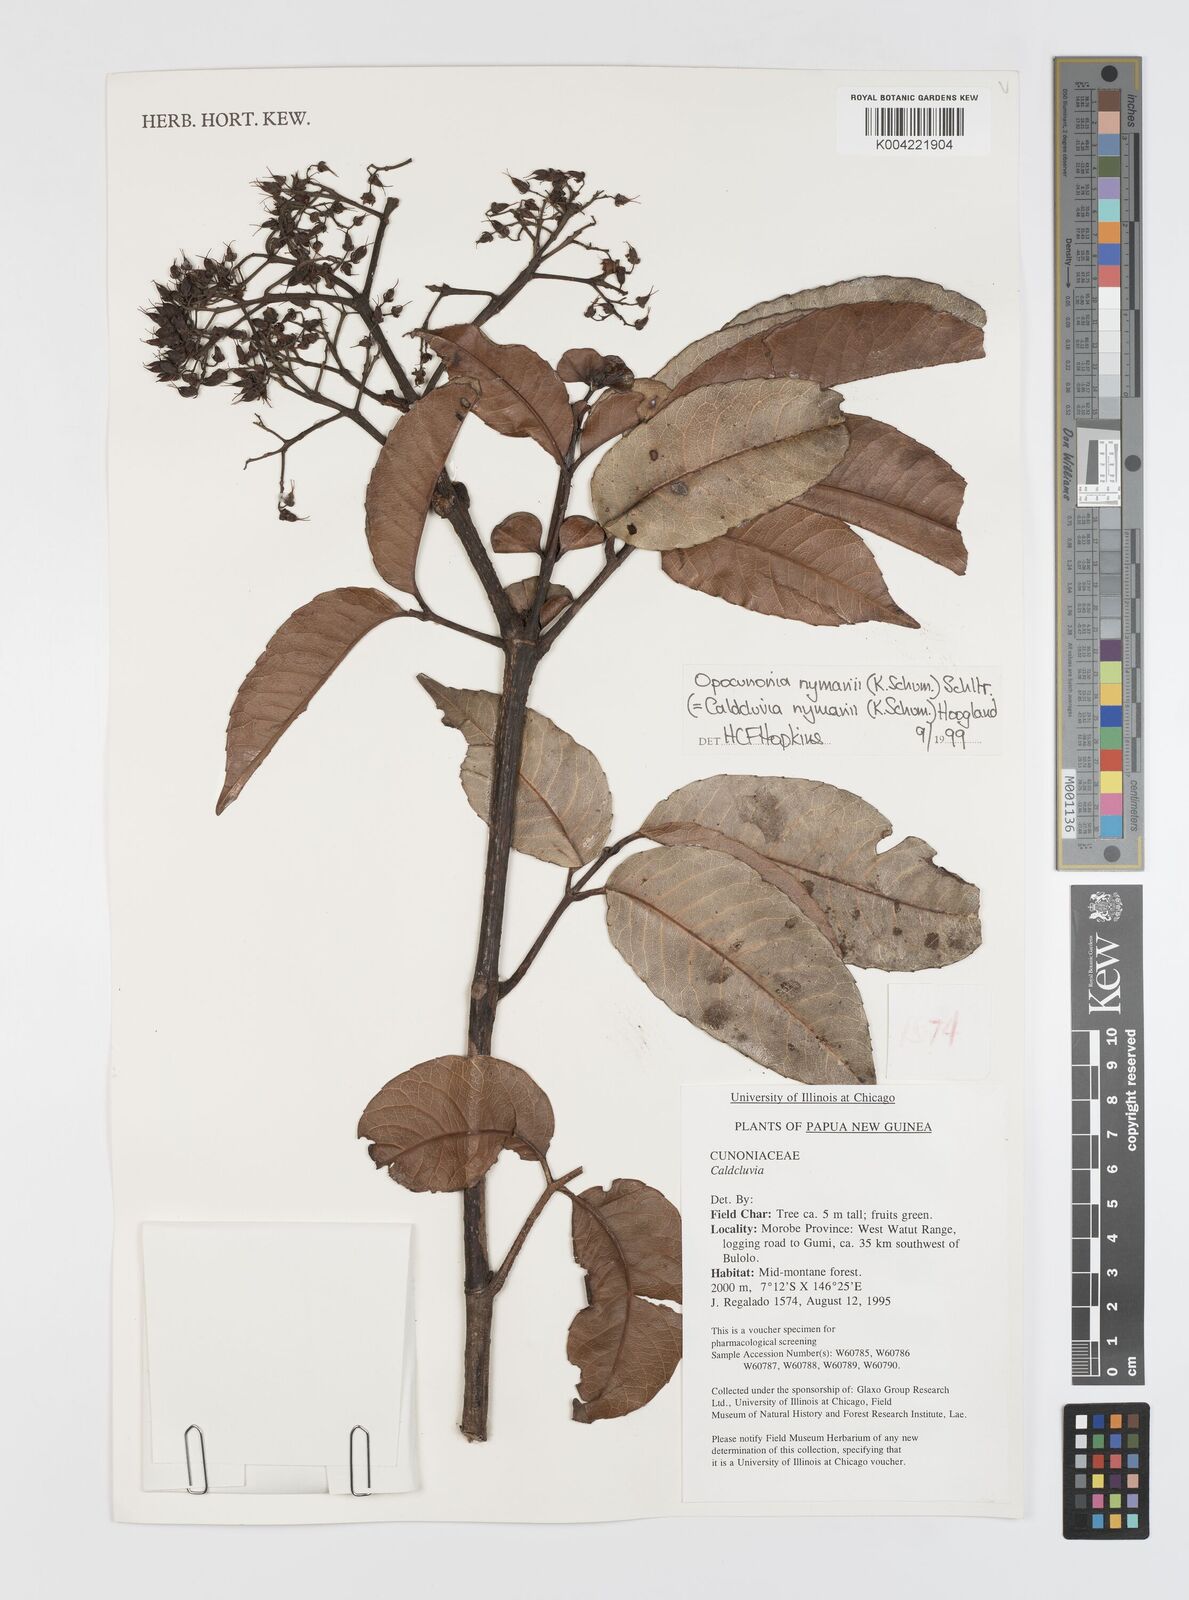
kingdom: Plantae
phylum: Tracheophyta
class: Magnoliopsida
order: Oxalidales
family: Cunoniaceae
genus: Opocunonia
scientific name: Opocunonia nymanii
